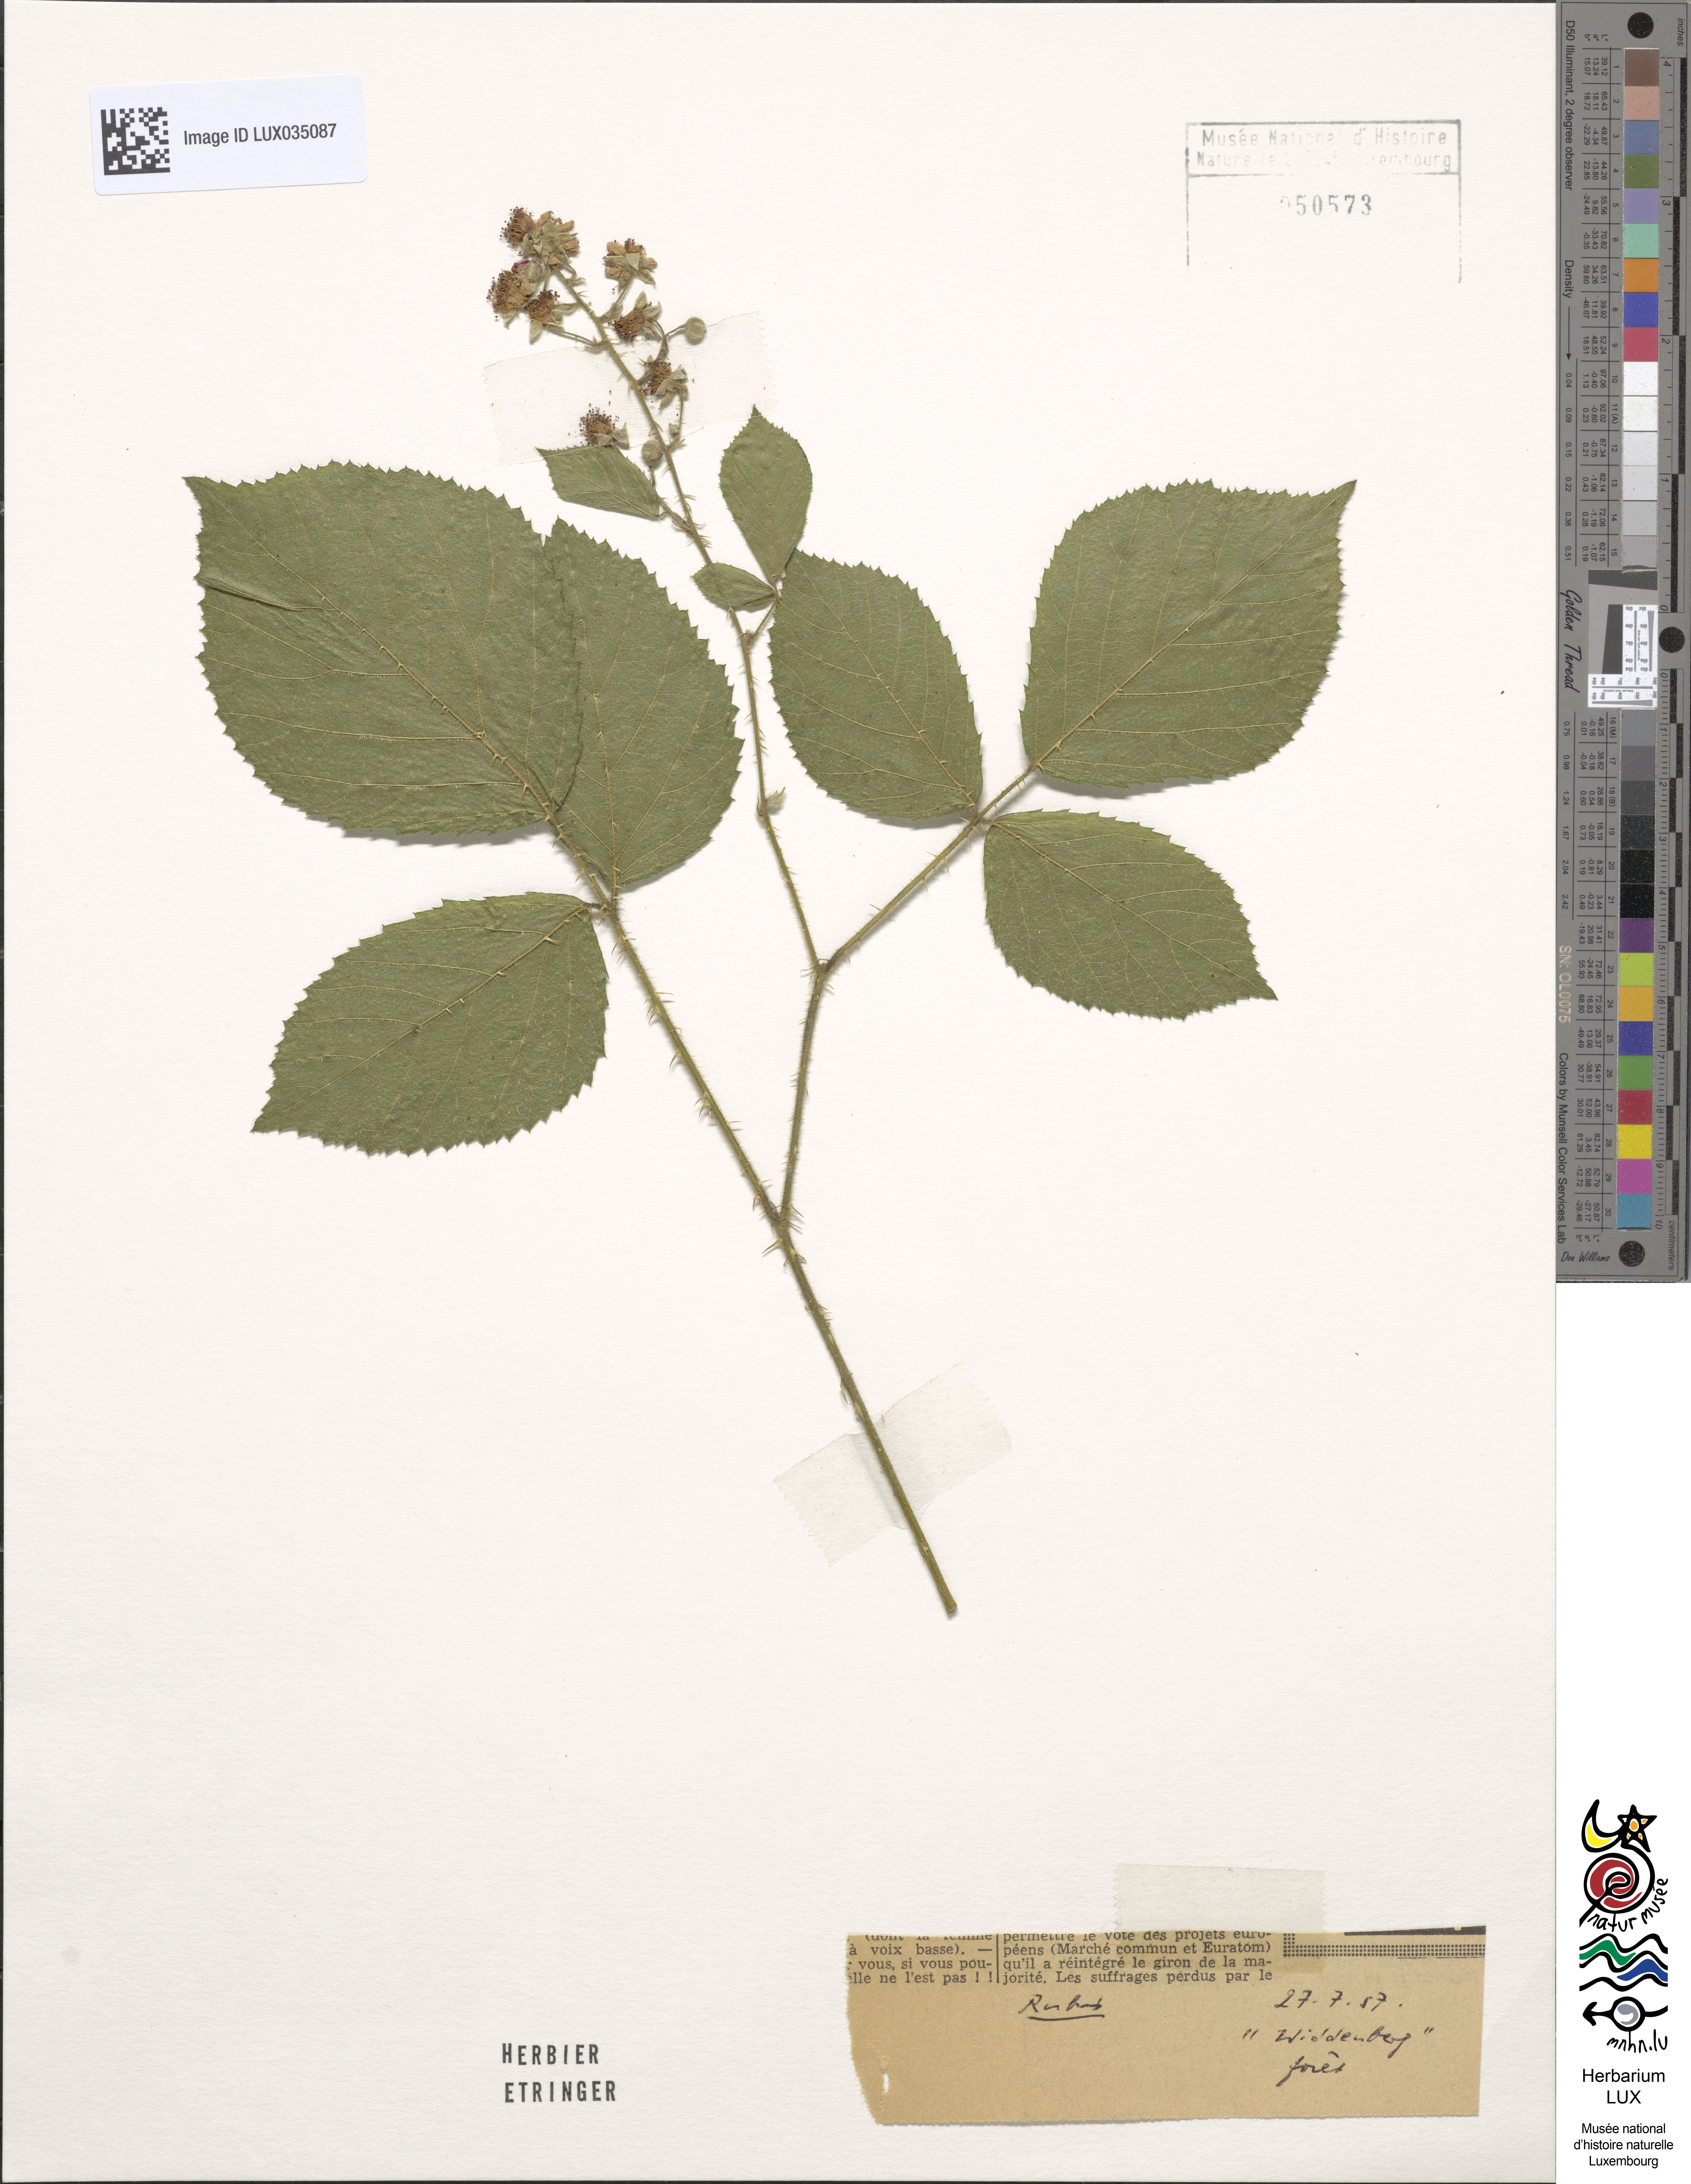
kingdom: Plantae
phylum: Tracheophyta
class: Magnoliopsida
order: Rosales
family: Rosaceae
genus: Rubus
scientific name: Rubus
